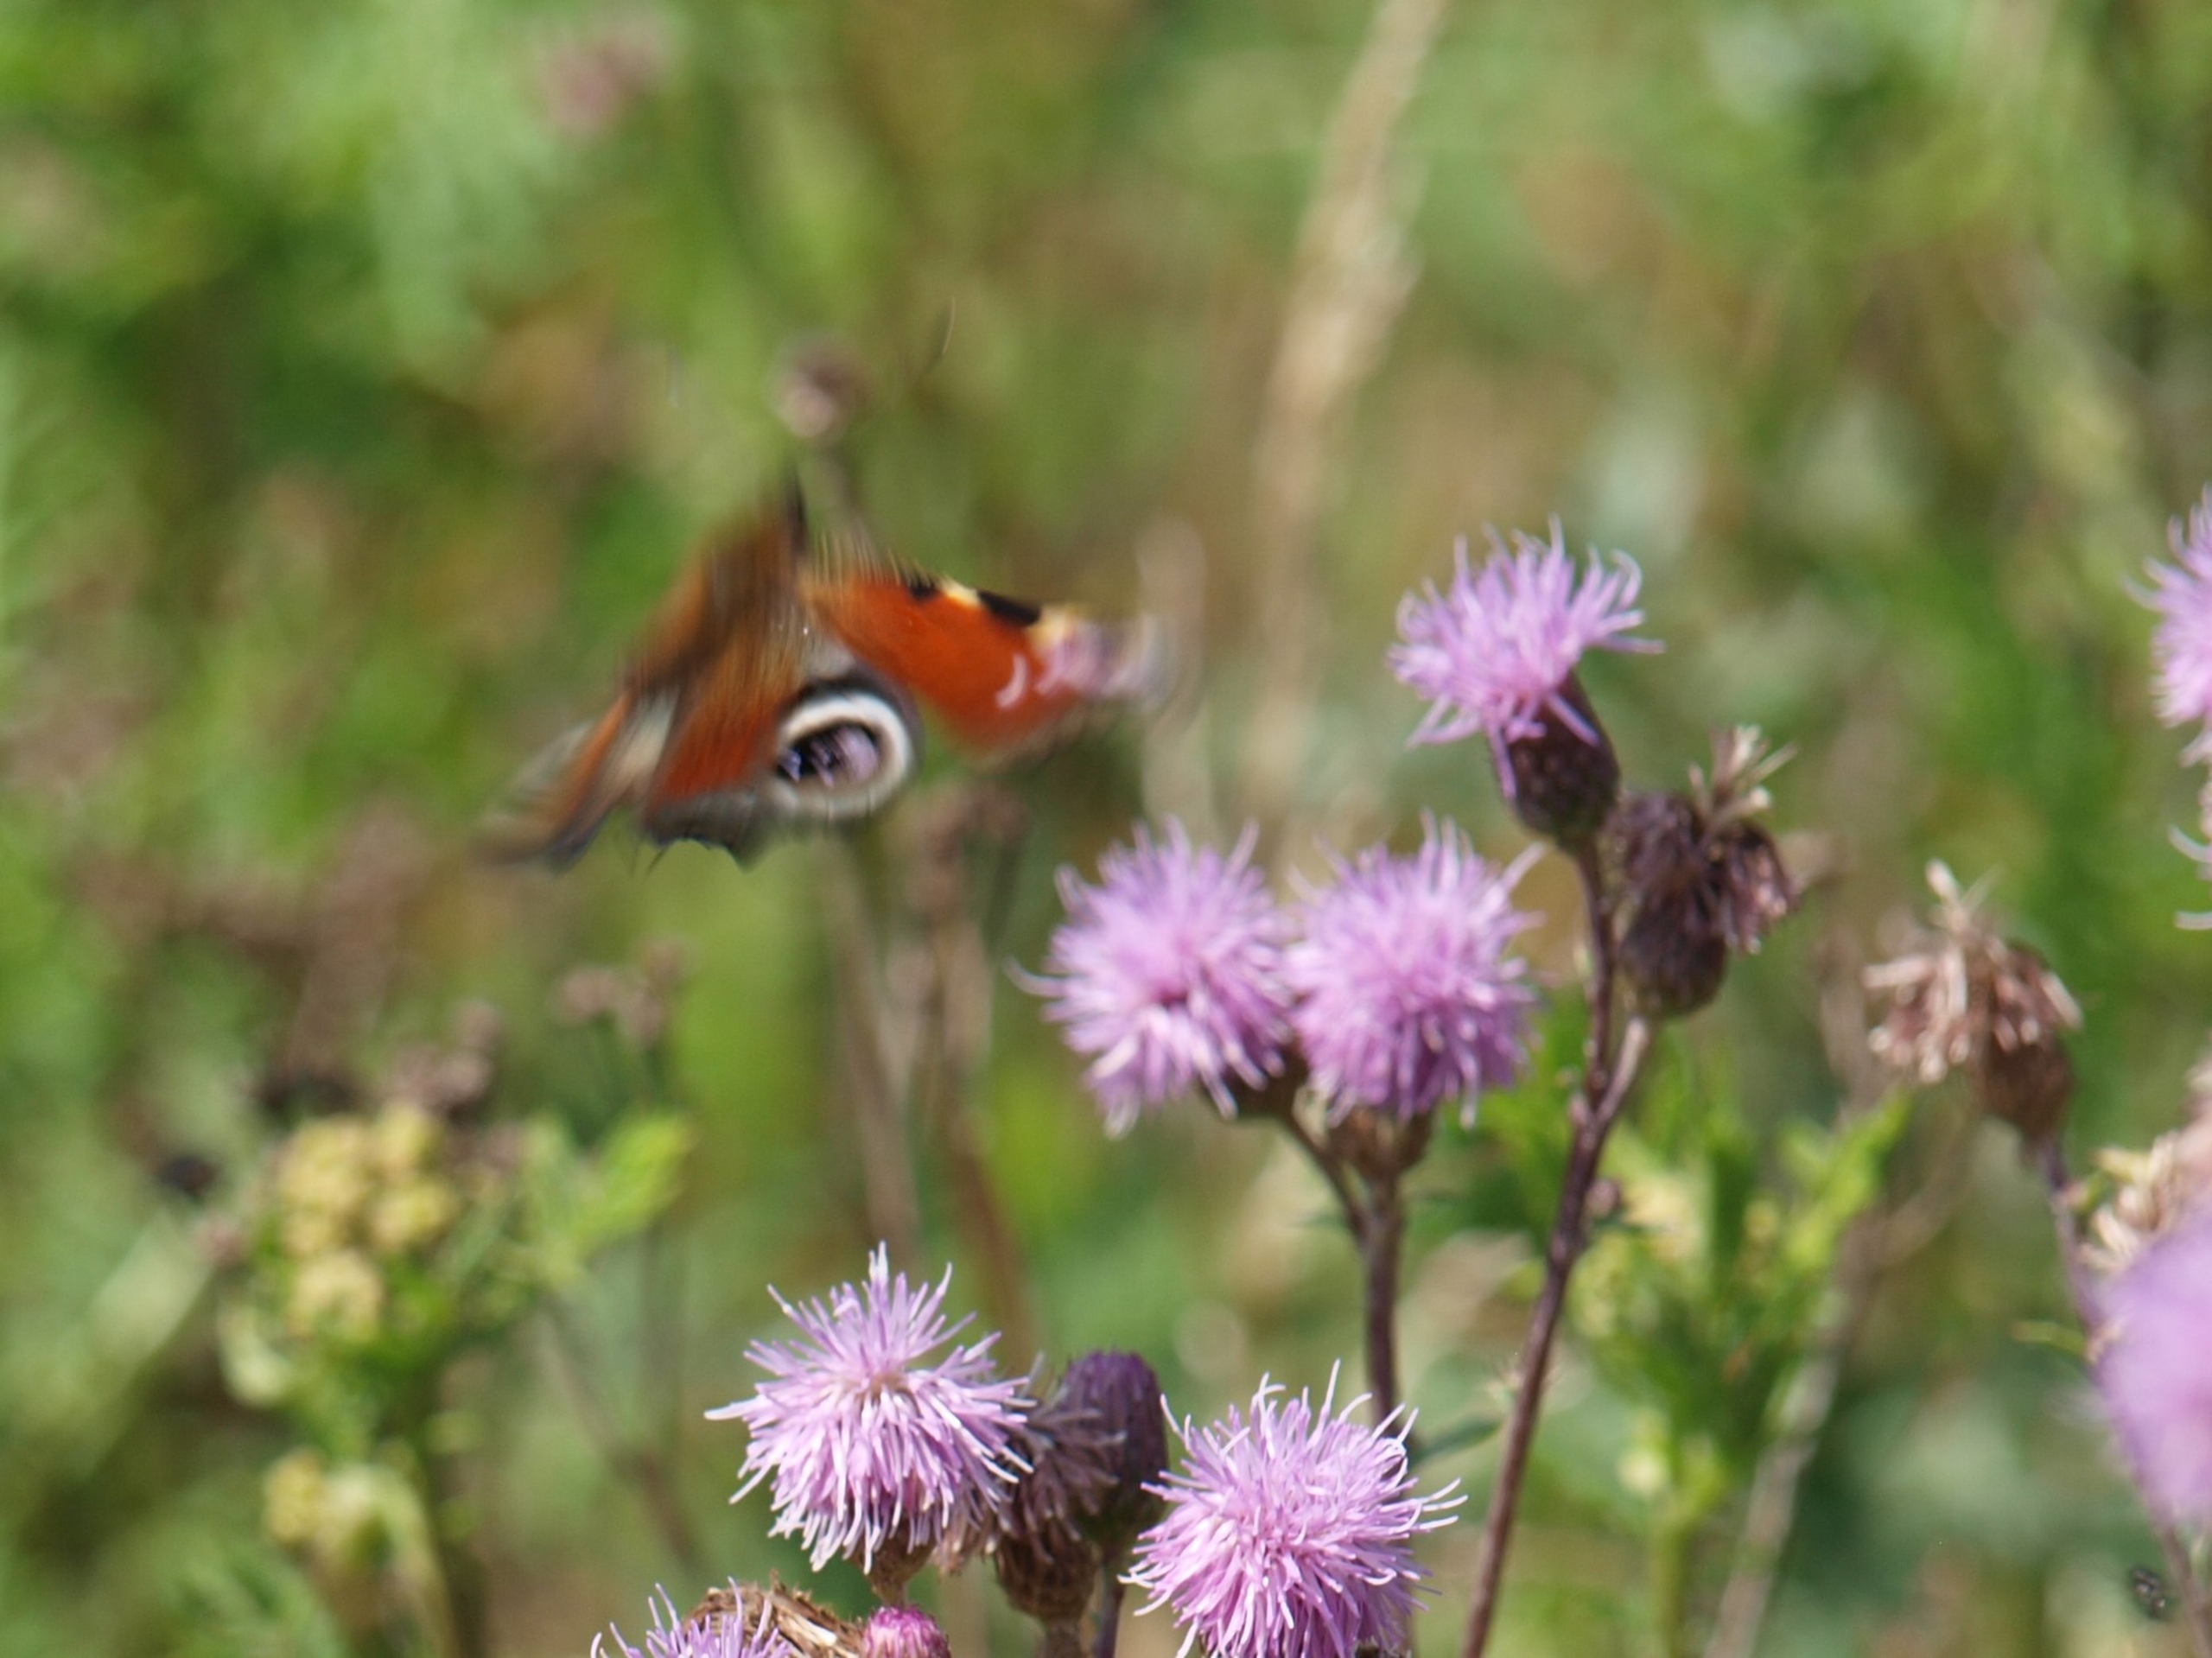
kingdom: Animalia
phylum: Arthropoda
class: Insecta
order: Lepidoptera
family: Nymphalidae
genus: Aglais
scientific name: Aglais io
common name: Dagpåfugleøje
